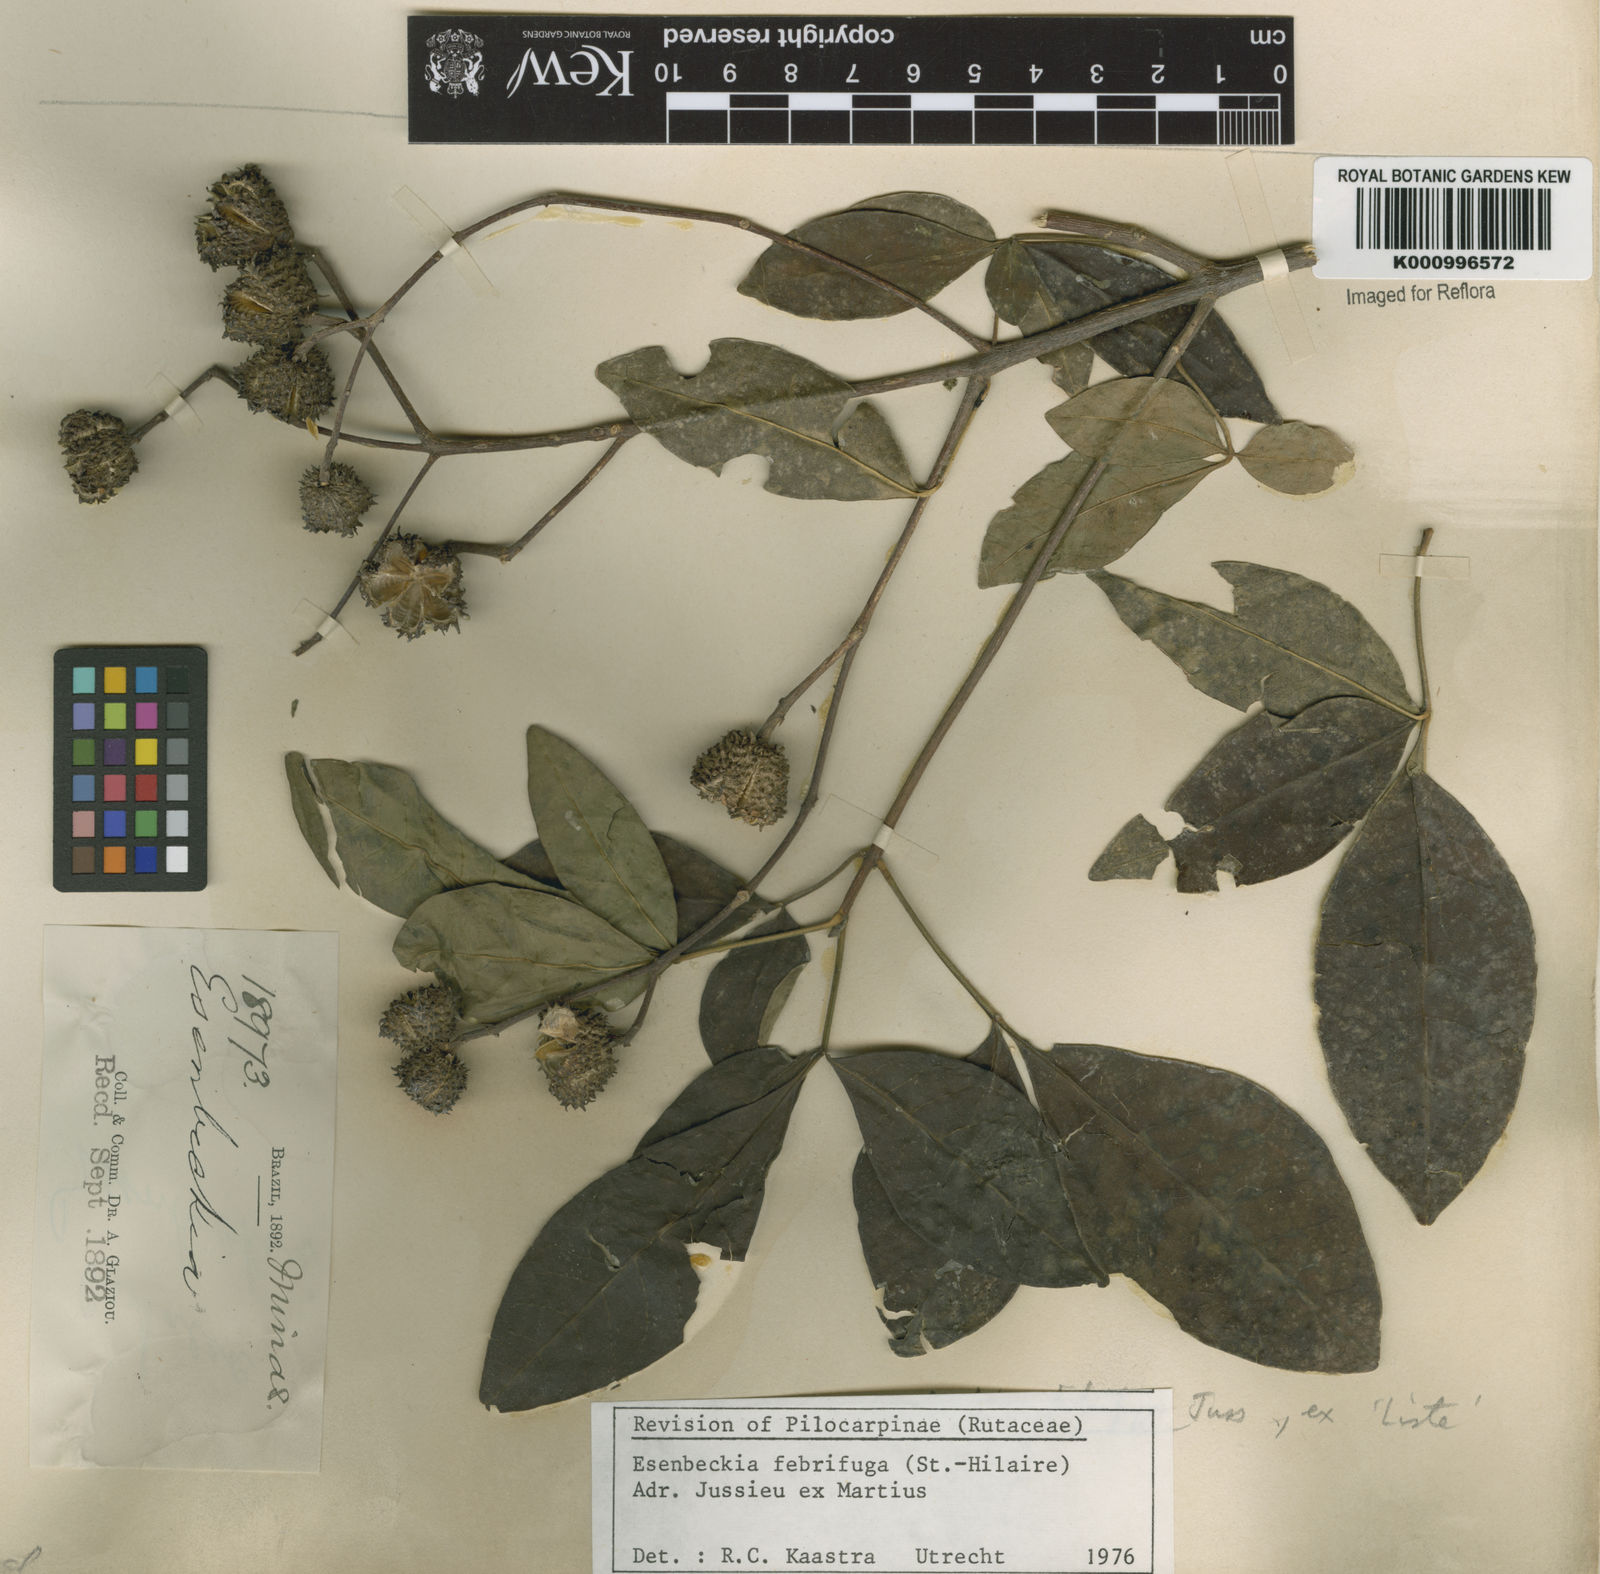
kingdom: Plantae
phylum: Tracheophyta
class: Magnoliopsida
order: Sapindales
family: Rutaceae
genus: Esenbeckia
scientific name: Esenbeckia febrifuga
